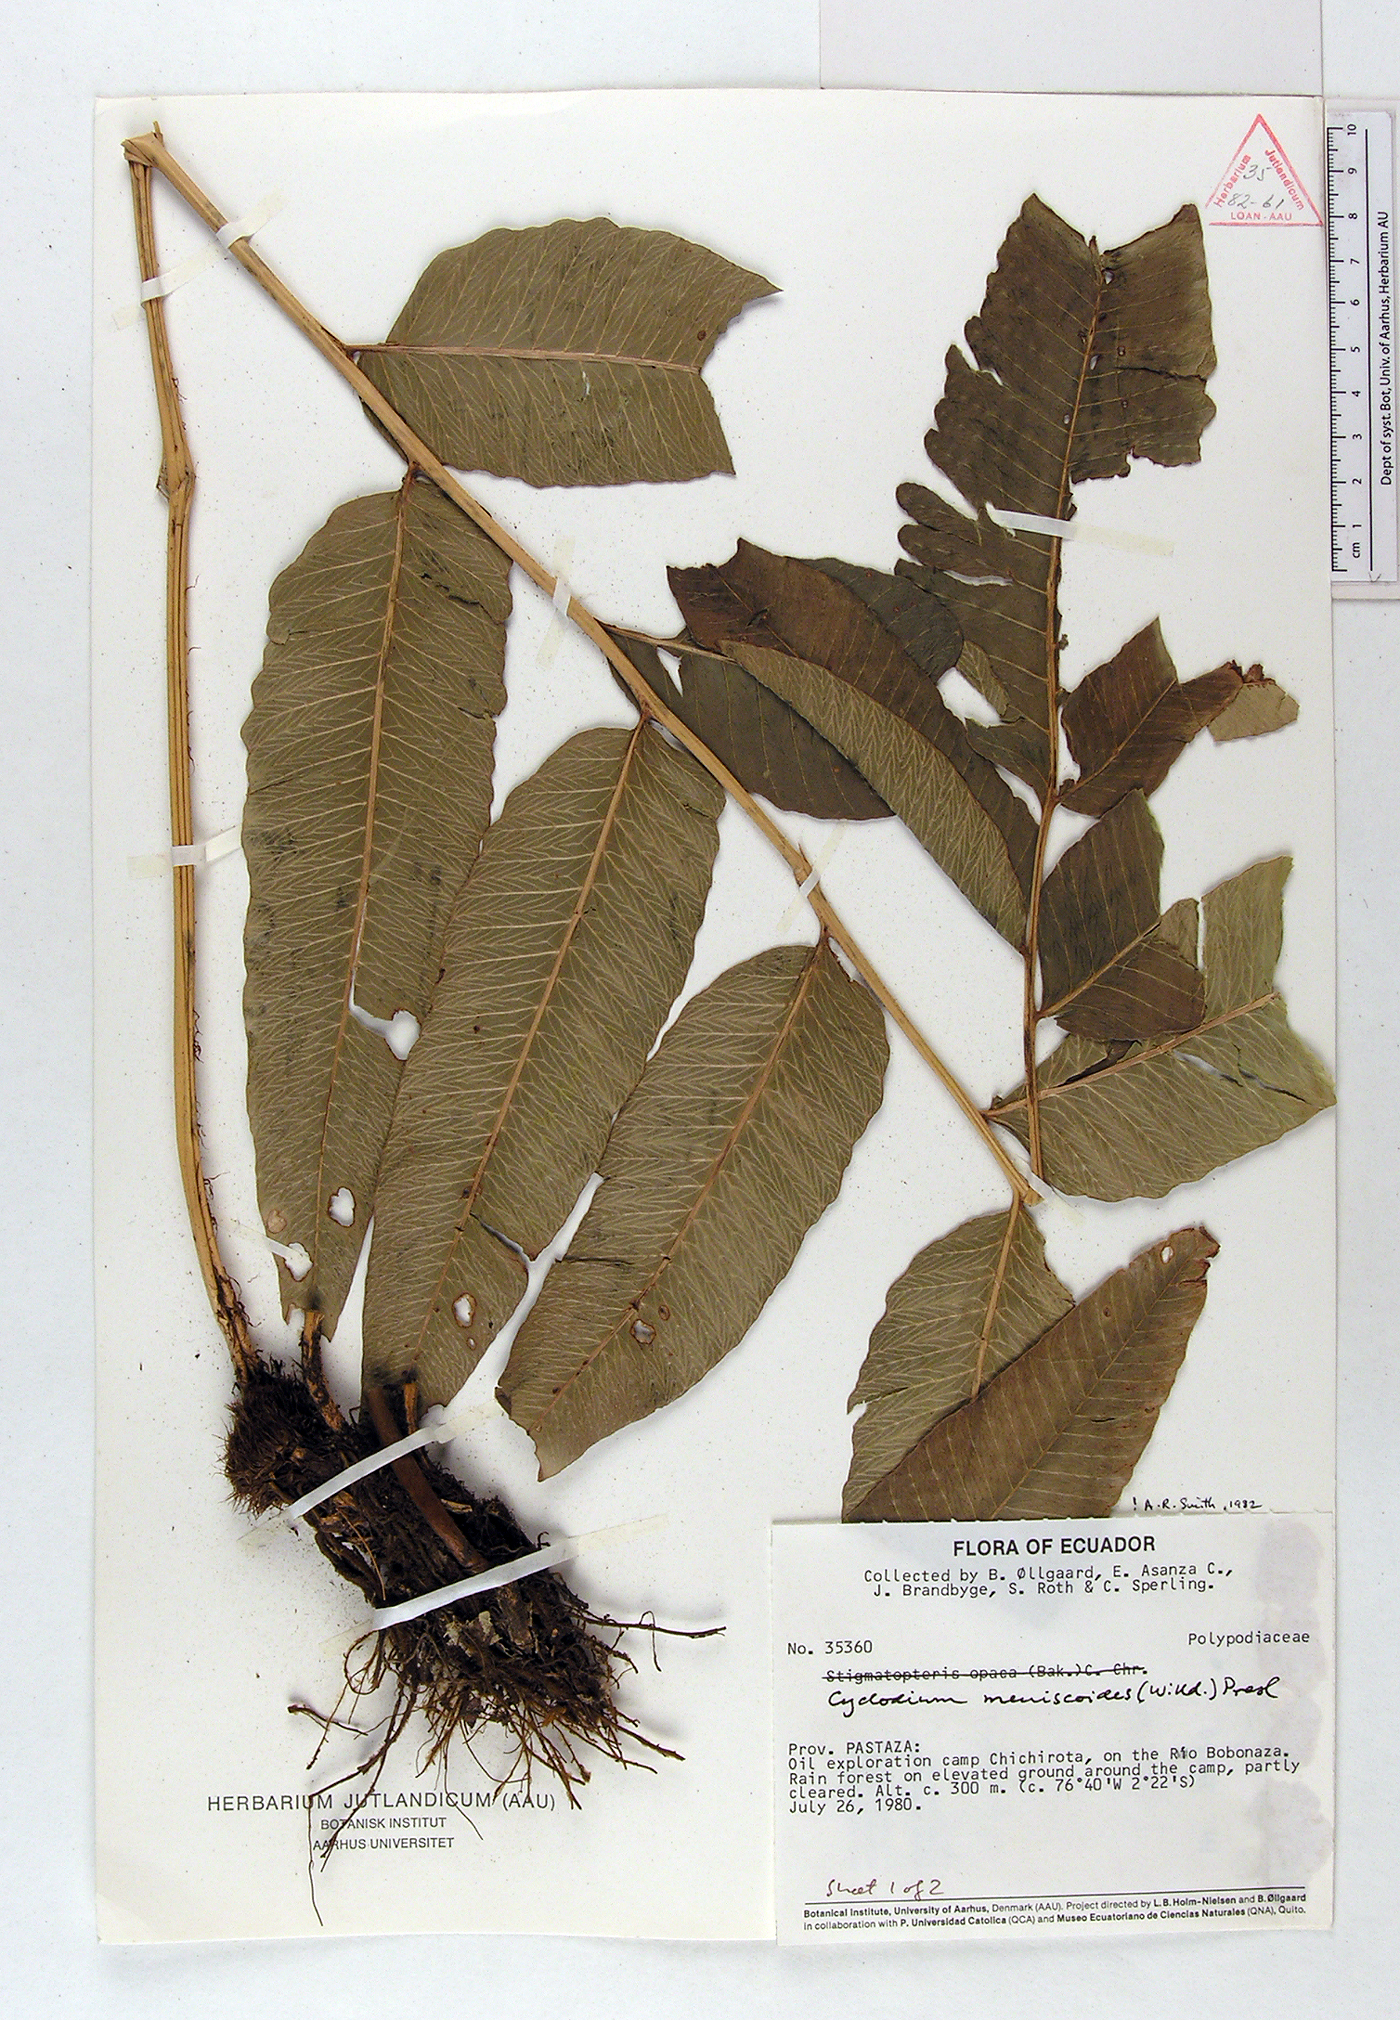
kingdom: Plantae
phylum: Tracheophyta
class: Polypodiopsida
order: Polypodiales
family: Dryopteridaceae
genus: Cyclodium
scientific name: Cyclodium meniscioides
